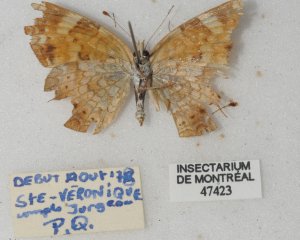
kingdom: Animalia
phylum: Arthropoda
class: Insecta
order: Lepidoptera
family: Nymphalidae
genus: Phyciodes
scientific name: Phyciodes tharos
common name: Northern Crescent
